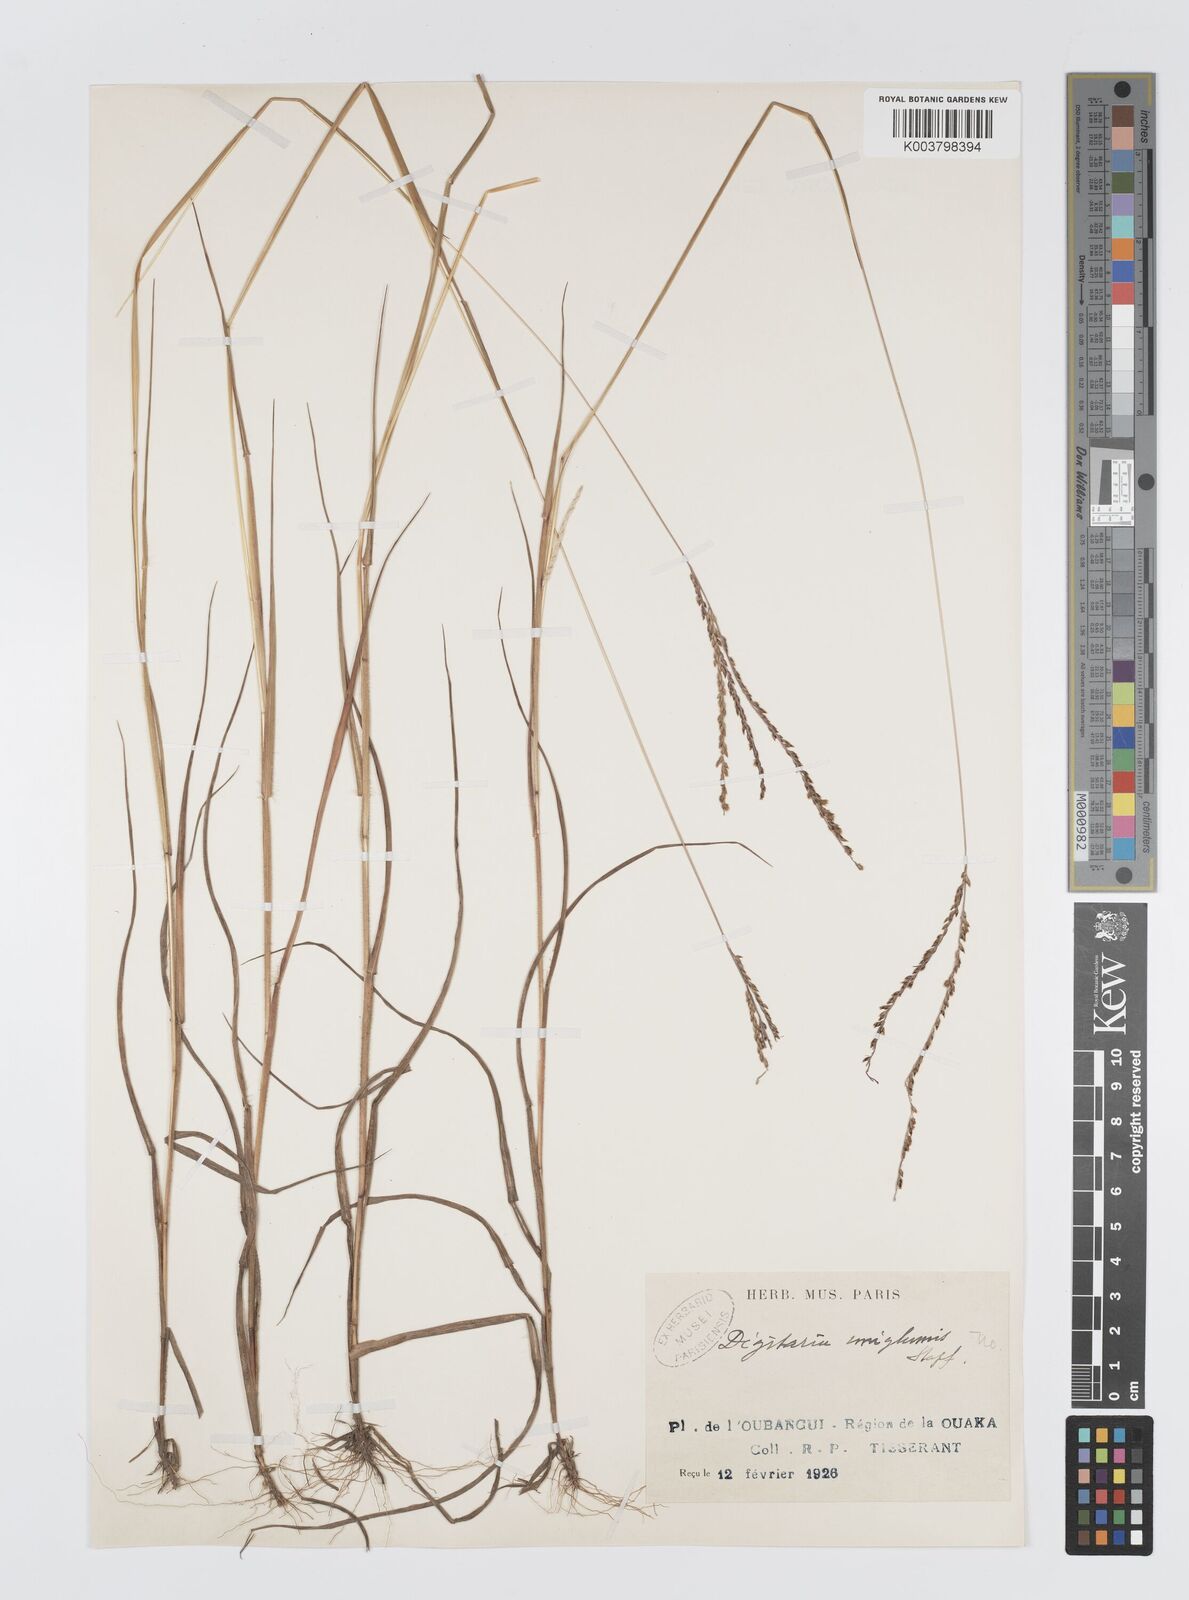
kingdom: Plantae
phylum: Tracheophyta
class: Liliopsida
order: Poales
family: Poaceae
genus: Digitaria
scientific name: Digitaria argillacea
